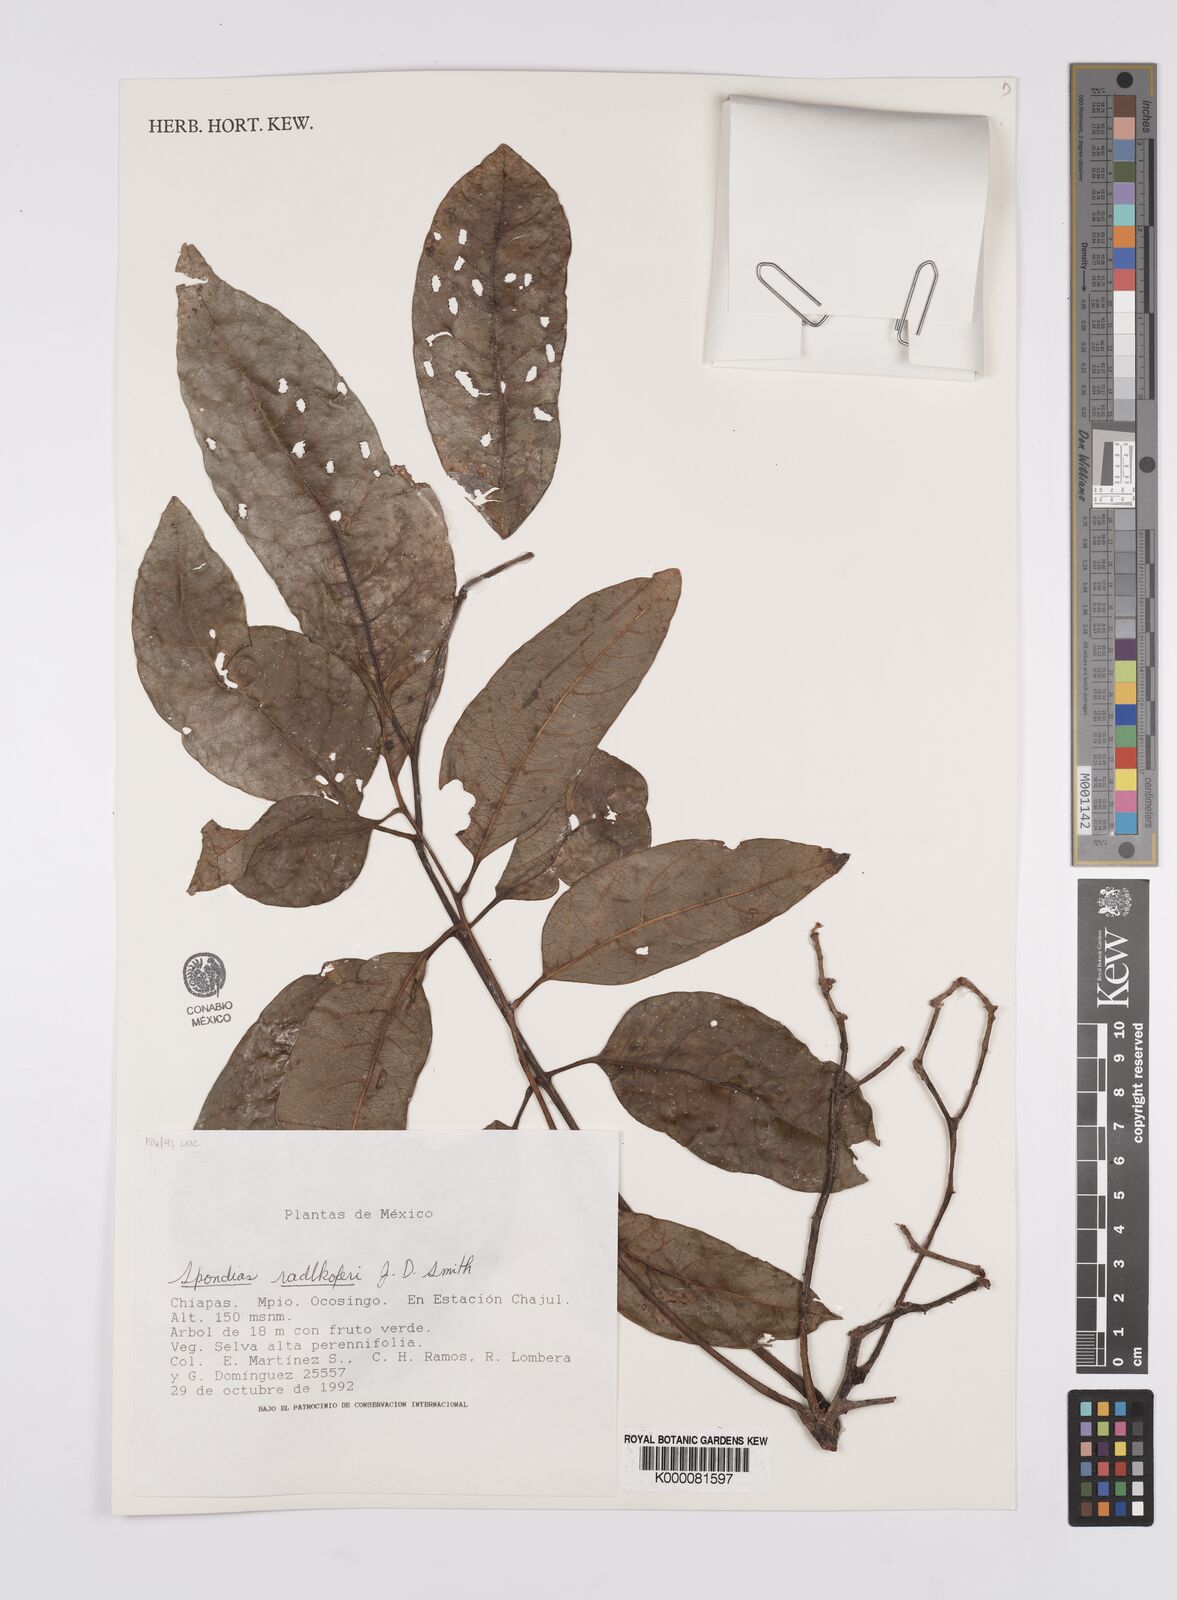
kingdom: Plantae
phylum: Tracheophyta
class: Magnoliopsida
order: Sapindales
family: Anacardiaceae
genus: Spondias
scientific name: Spondias radlkoferi
